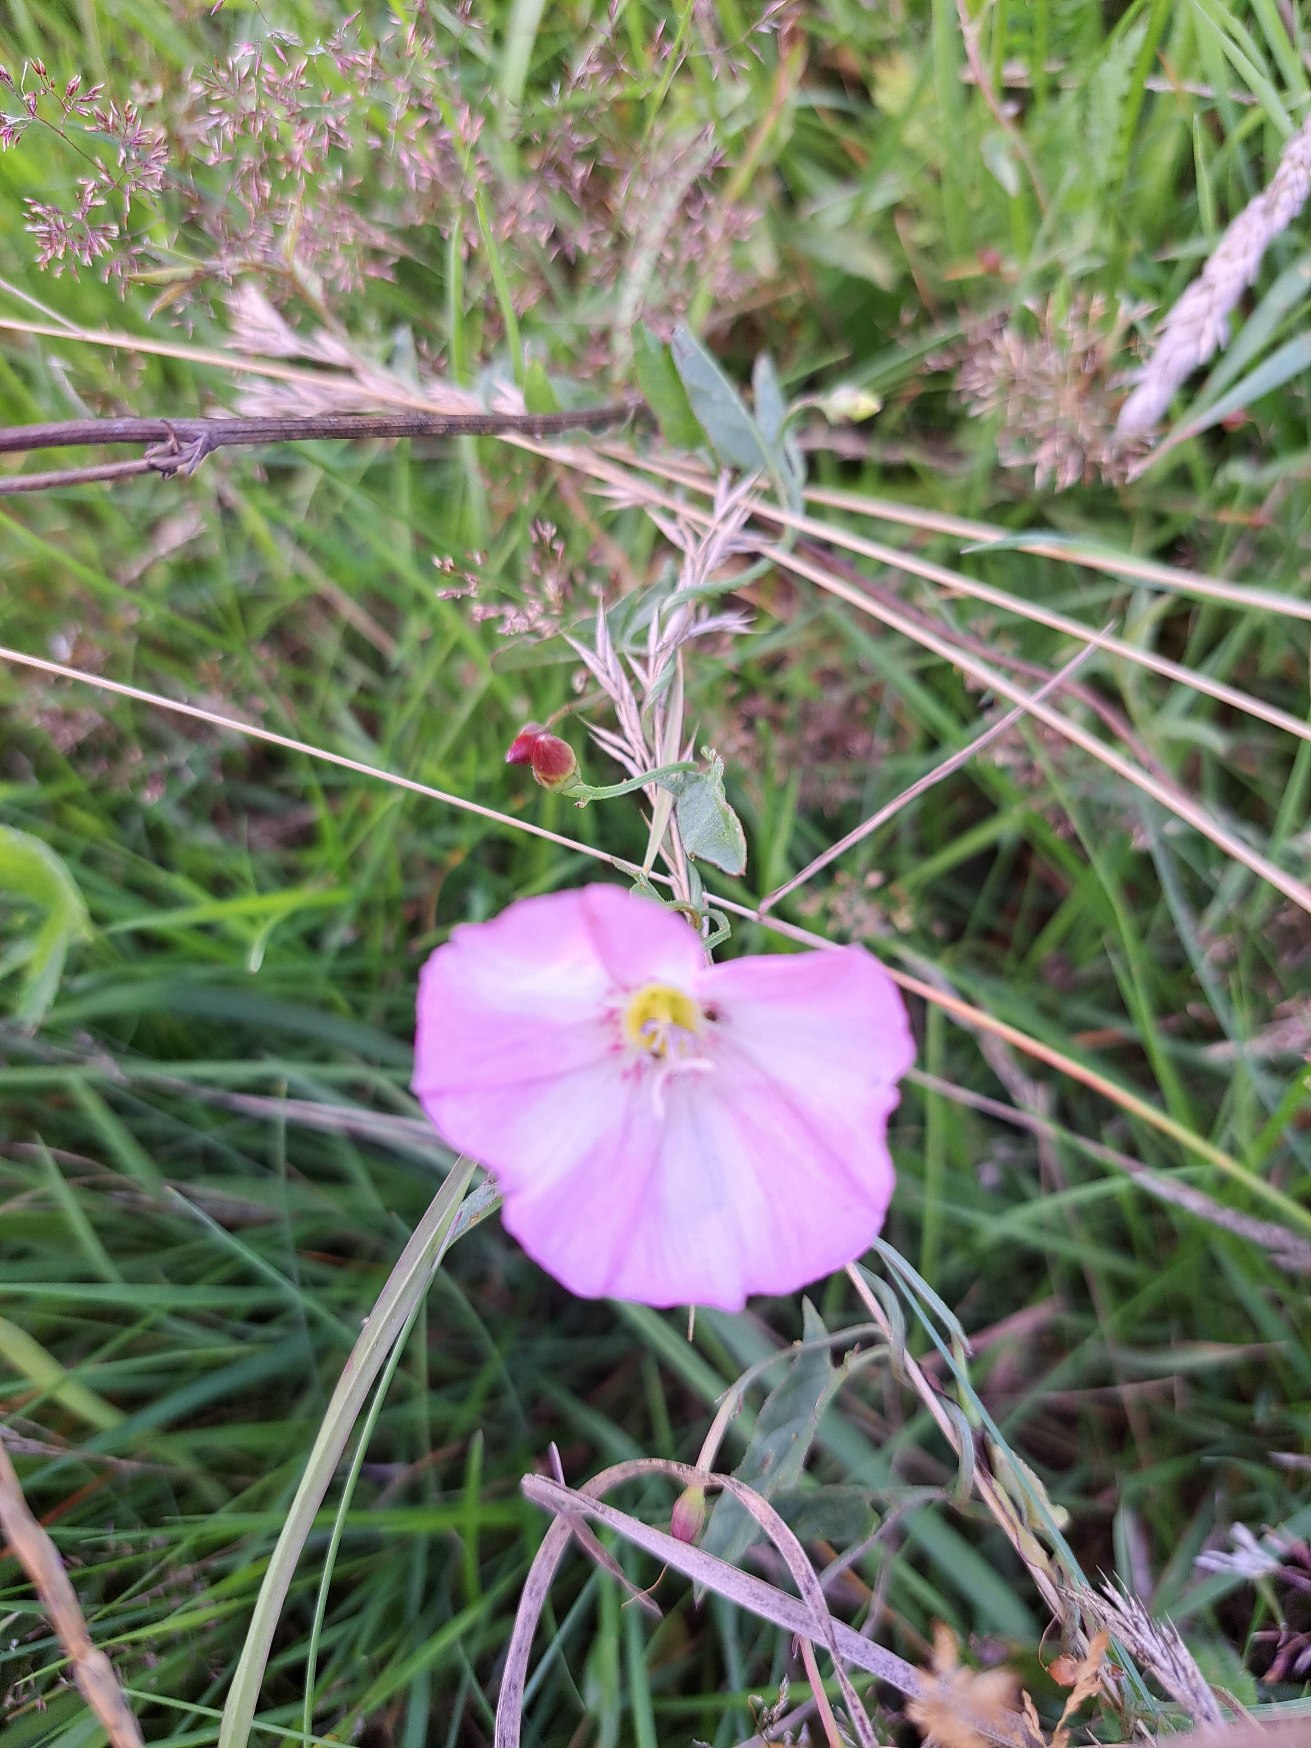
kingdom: Plantae
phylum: Tracheophyta
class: Magnoliopsida
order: Solanales
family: Convolvulaceae
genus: Convolvulus
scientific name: Convolvulus arvensis
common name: Ager-snerle
